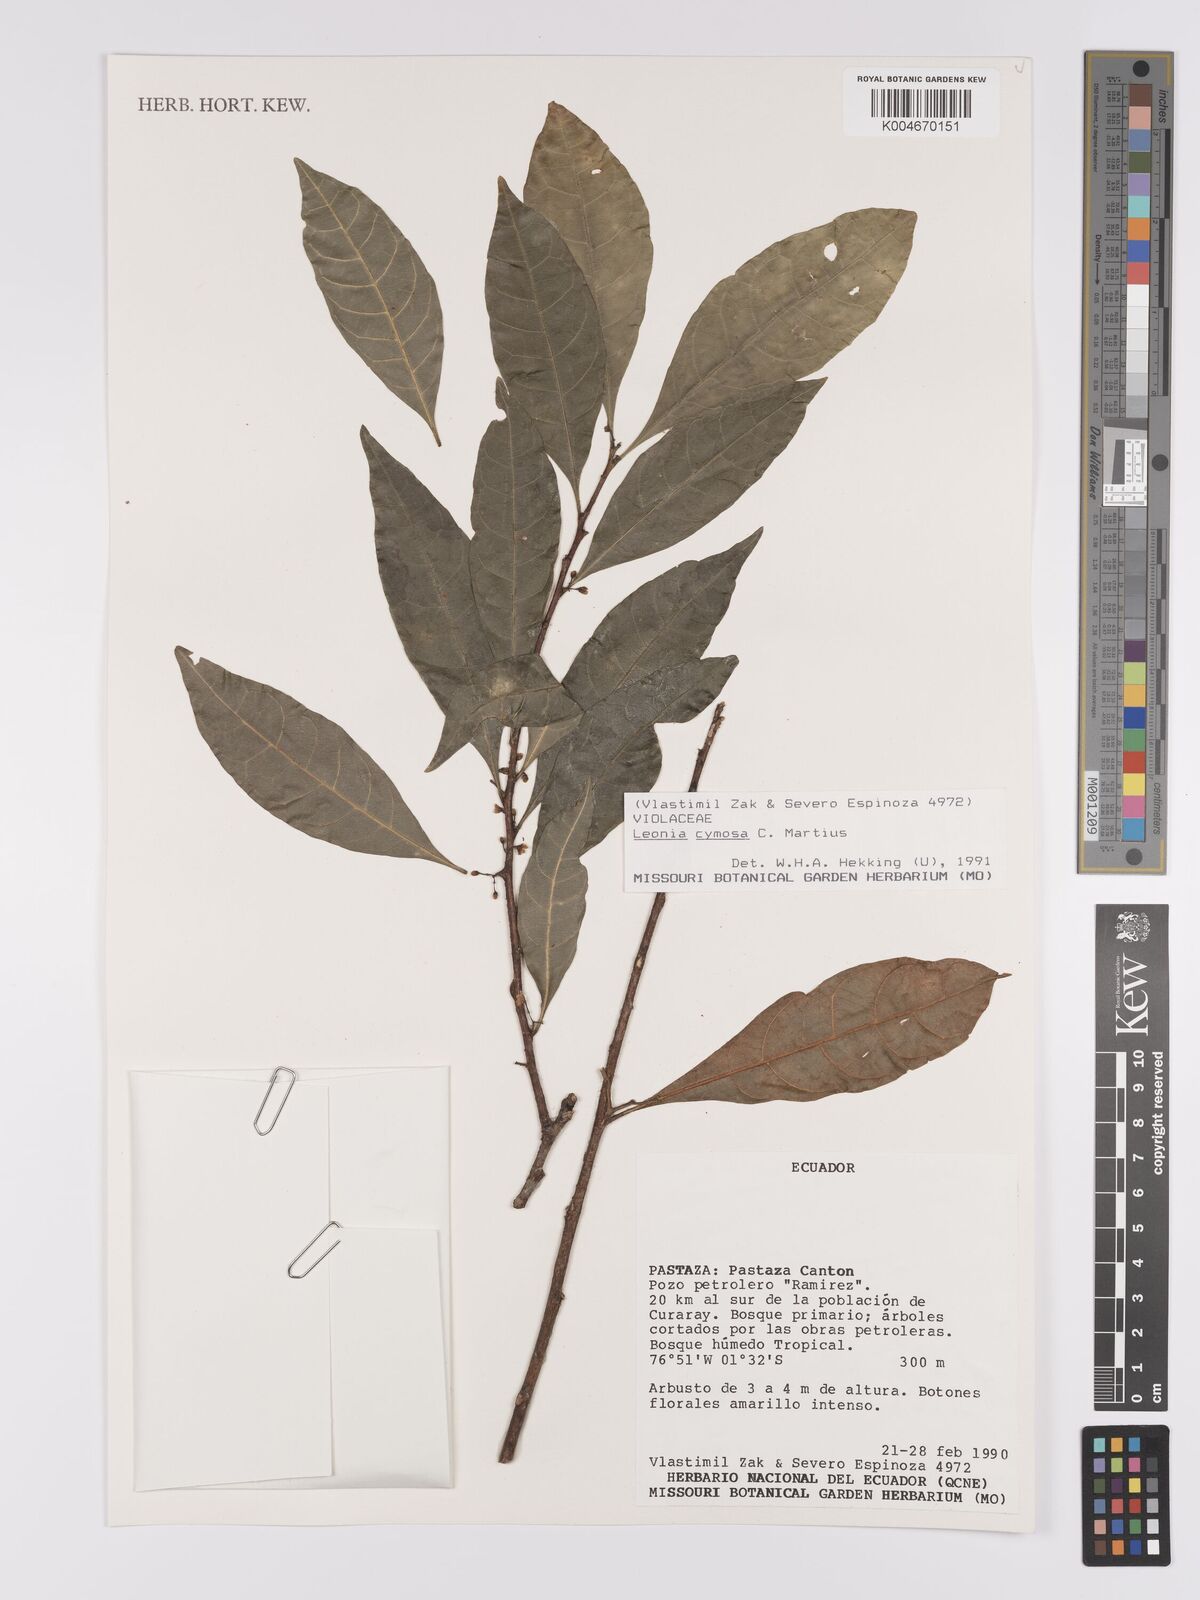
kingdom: Plantae
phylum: Tracheophyta
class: Magnoliopsida
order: Malpighiales
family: Violaceae
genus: Leonia
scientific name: Leonia cymosa
